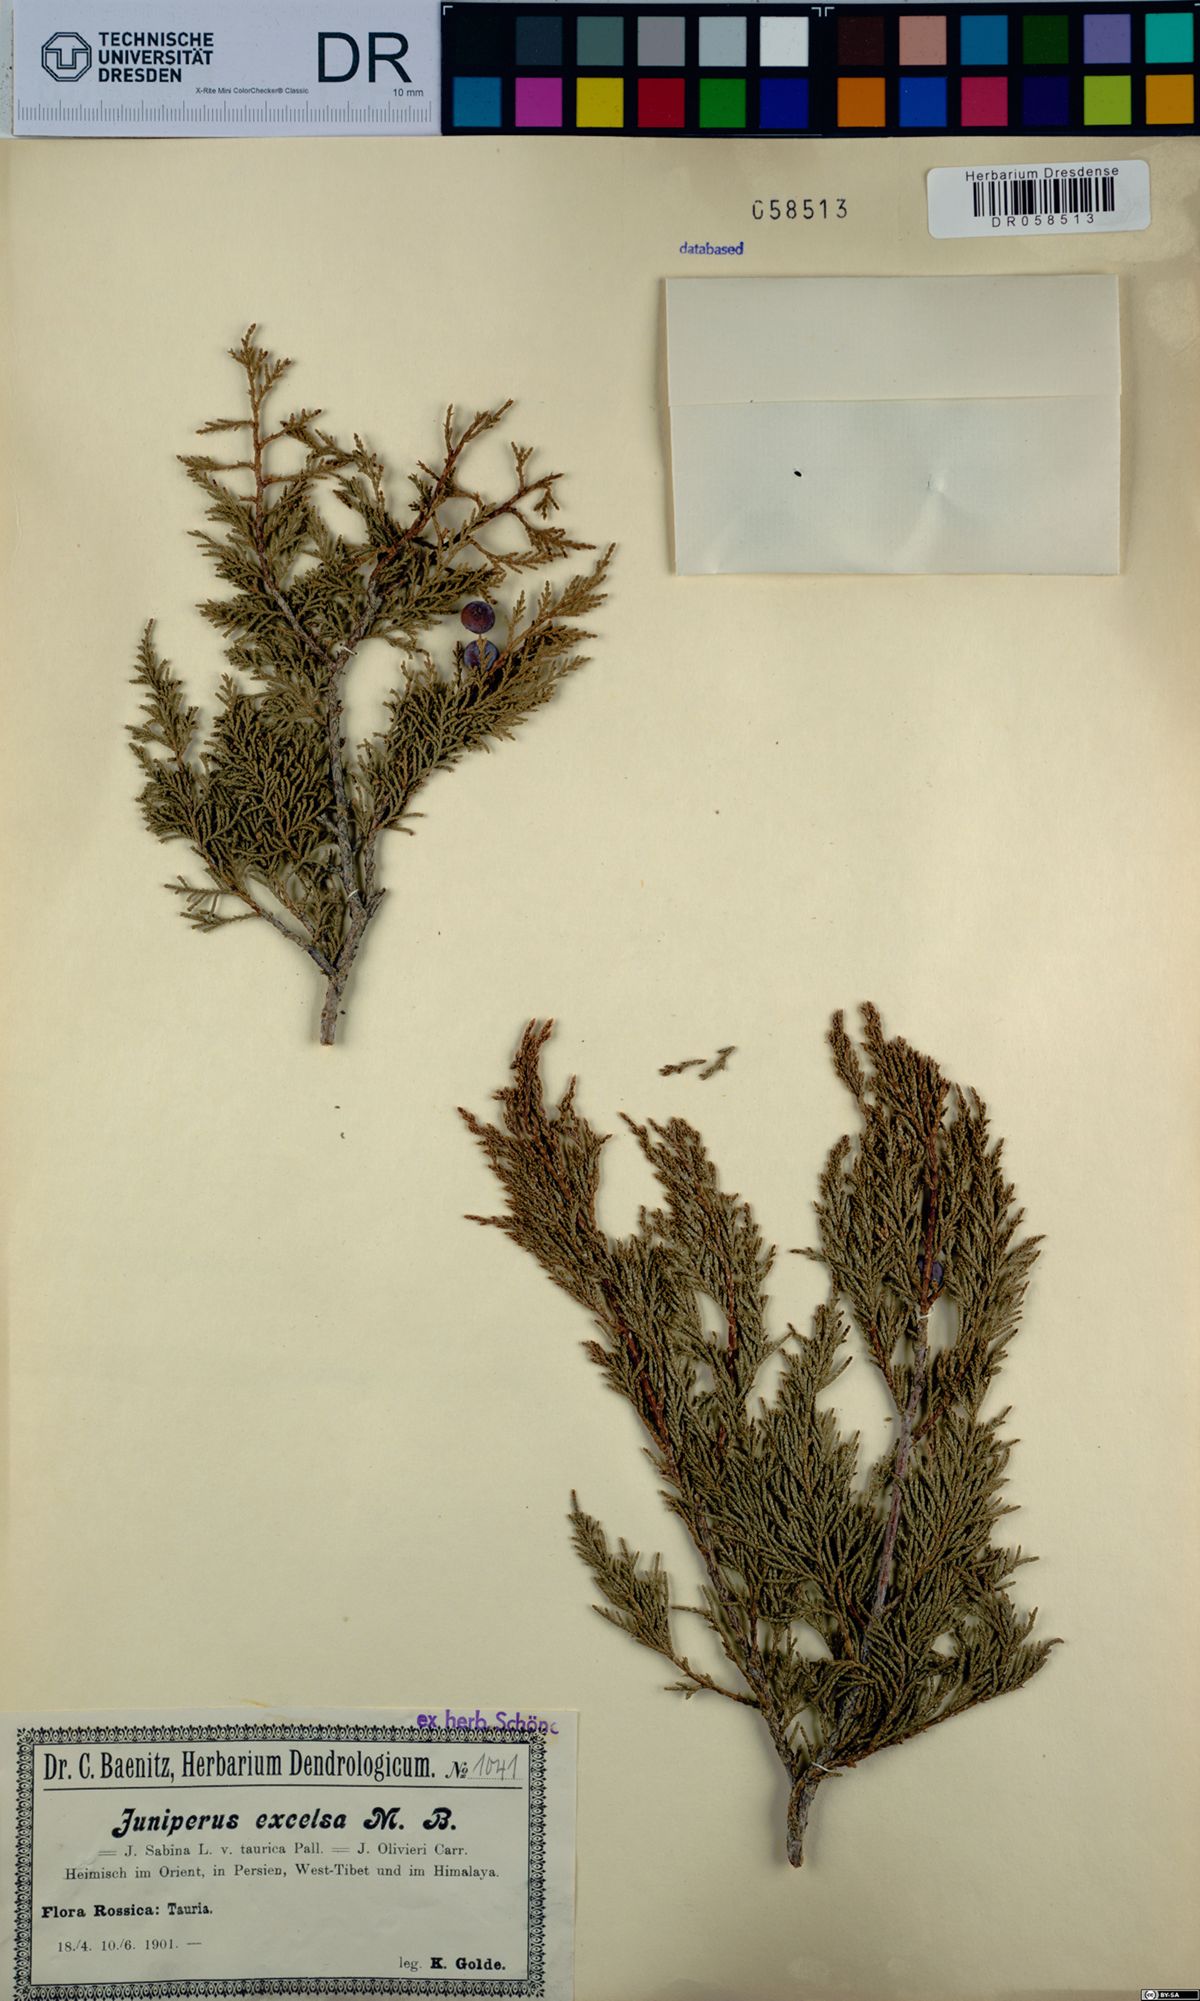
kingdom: Plantae
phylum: Tracheophyta
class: Pinopsida
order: Pinales
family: Cupressaceae
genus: Juniperus
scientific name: Juniperus excelsa
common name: Crimean juniper
